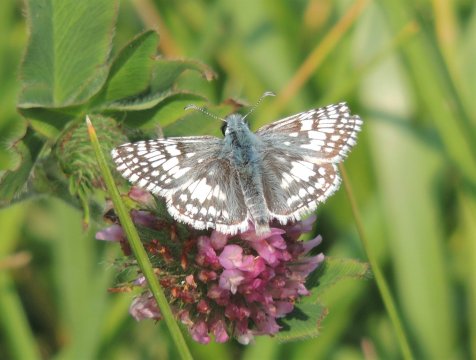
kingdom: Animalia
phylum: Arthropoda
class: Insecta
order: Lepidoptera
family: Hesperiidae
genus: Pyrgus
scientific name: Pyrgus communis
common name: Common Checkered-Skipper
